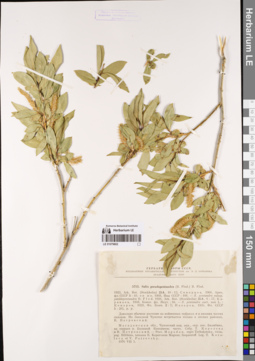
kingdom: Plantae
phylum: Tracheophyta
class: Magnoliopsida
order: Malpighiales
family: Salicaceae
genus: Salix
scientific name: Salix pseudopentandra
